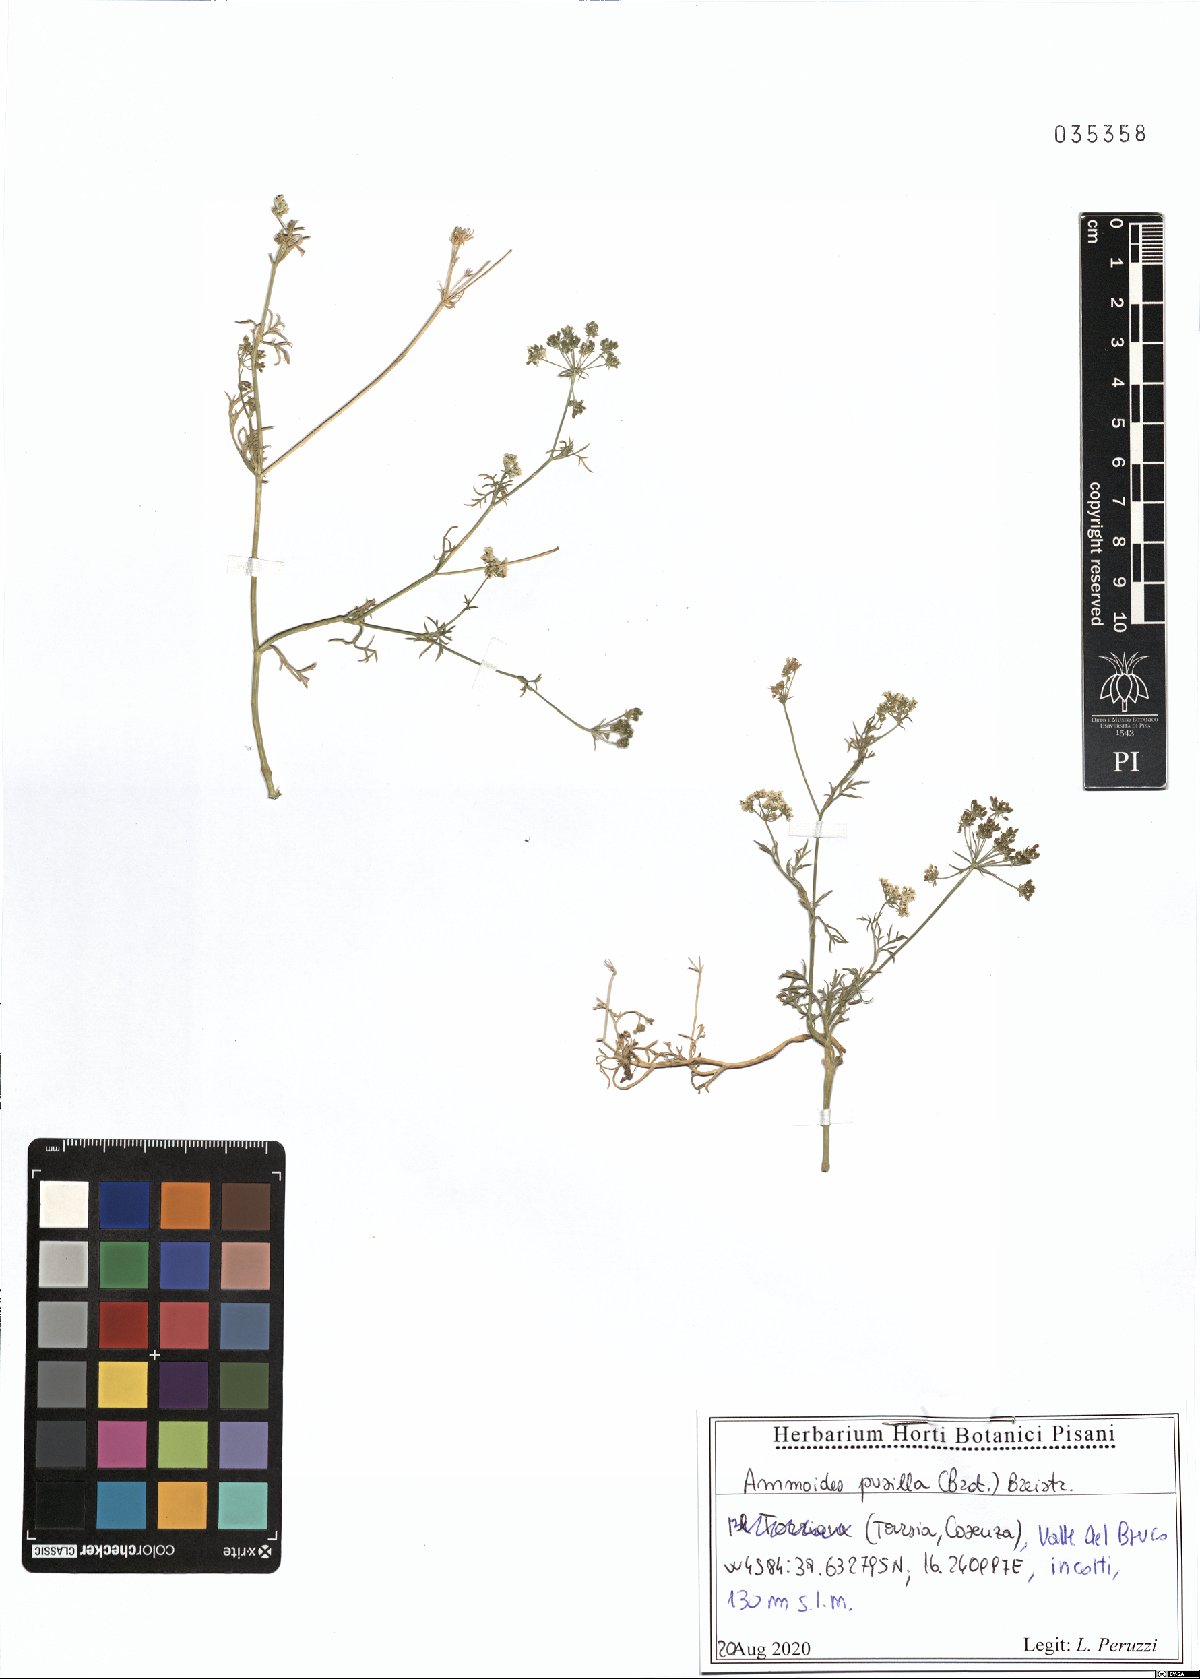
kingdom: Plantae
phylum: Tracheophyta
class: Magnoliopsida
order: Apiales
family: Apiaceae
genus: Ammoides
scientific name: Ammoides pusilla
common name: Cerfolium
